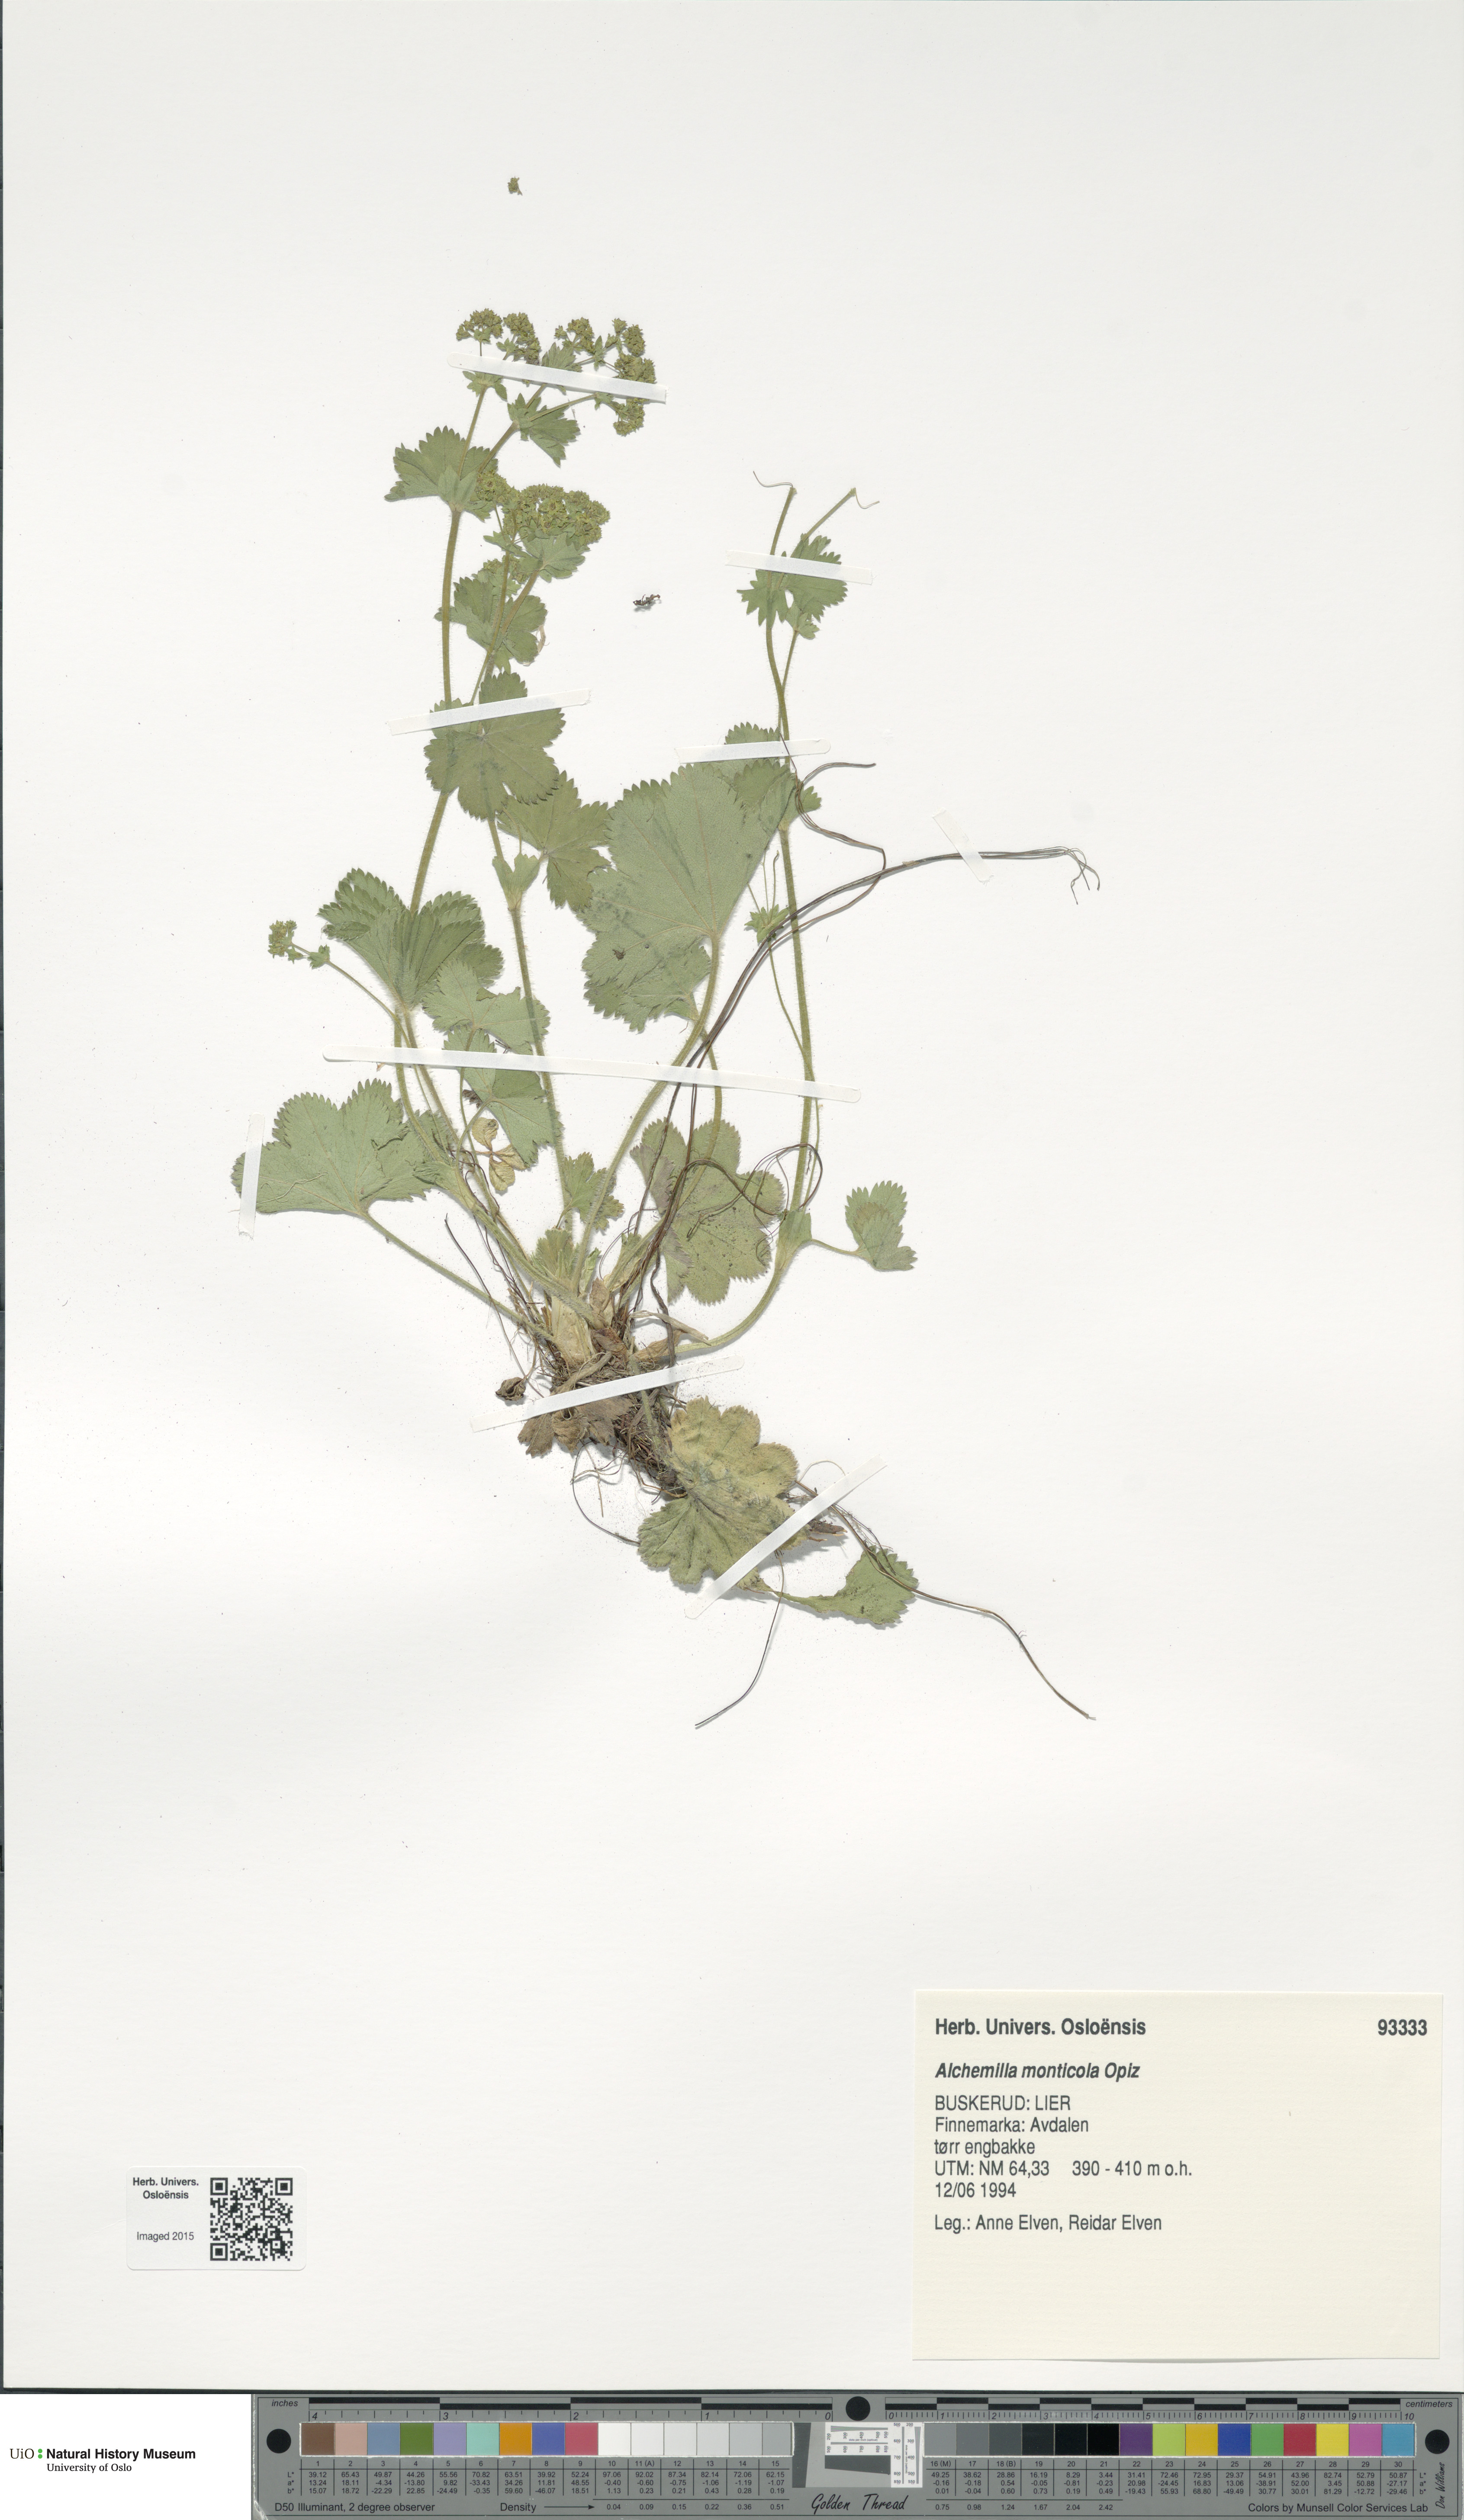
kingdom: Plantae
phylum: Tracheophyta
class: Magnoliopsida
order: Rosales
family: Rosaceae
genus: Alchemilla
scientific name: Alchemilla monticola
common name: Hairy lady's mantle
